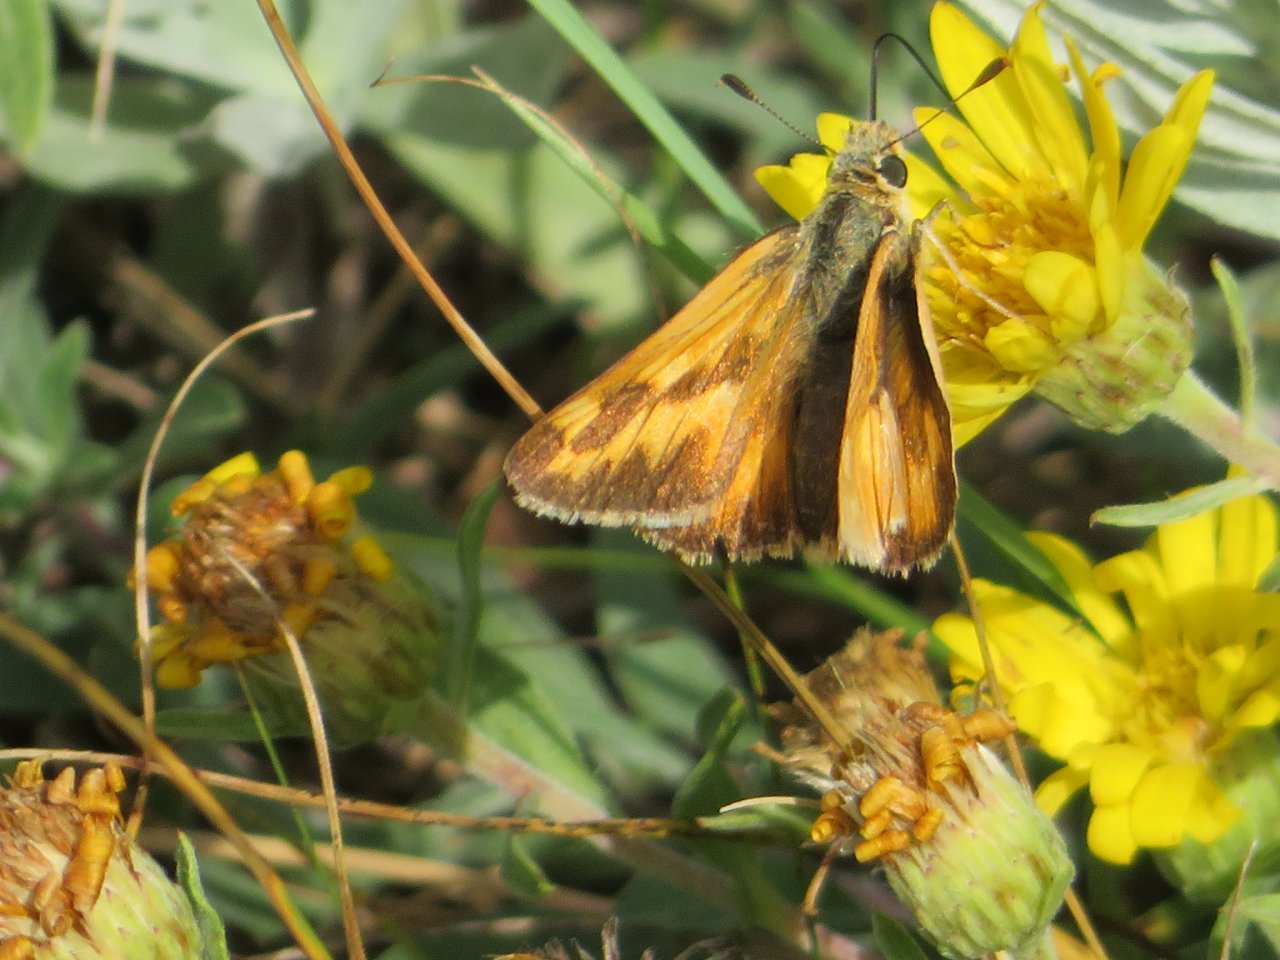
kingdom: Animalia
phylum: Arthropoda
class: Insecta
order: Lepidoptera
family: Hesperiidae
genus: Polites
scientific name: Polites
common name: Long Dash Skipper
